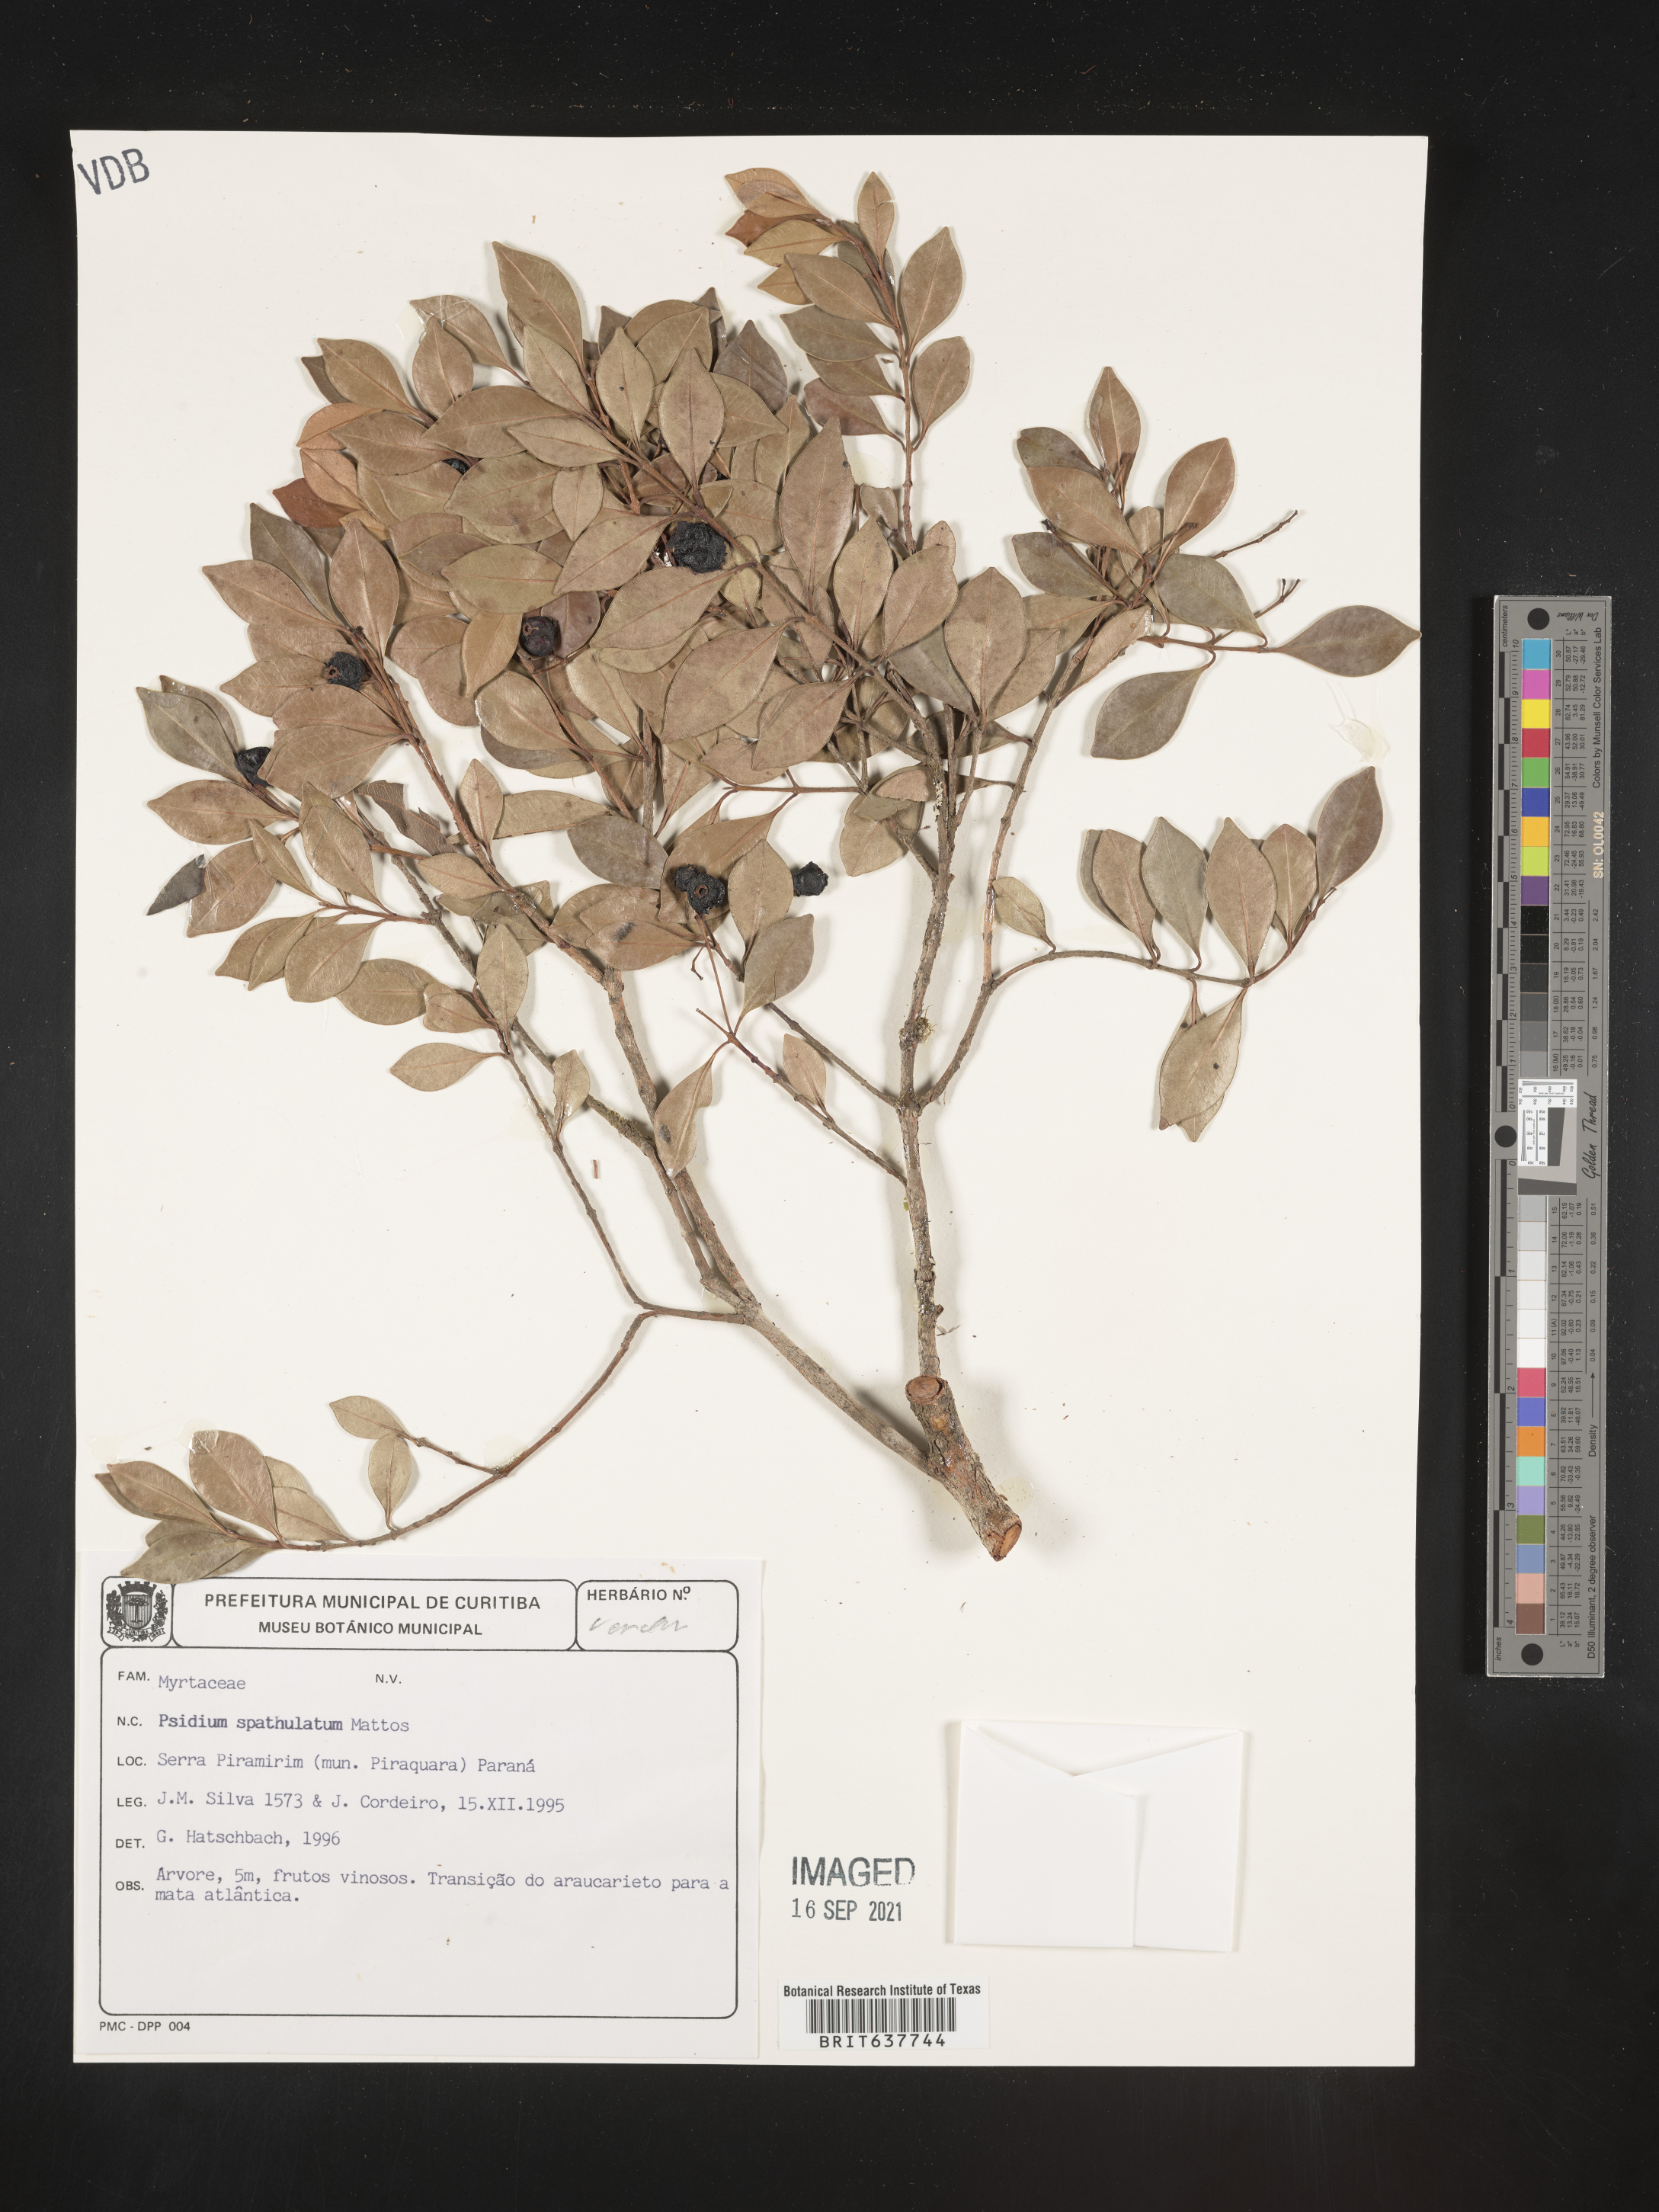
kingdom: Plantae
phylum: Tracheophyta
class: Magnoliopsida
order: Myrtales
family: Myrtaceae
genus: Psidium
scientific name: Psidium
